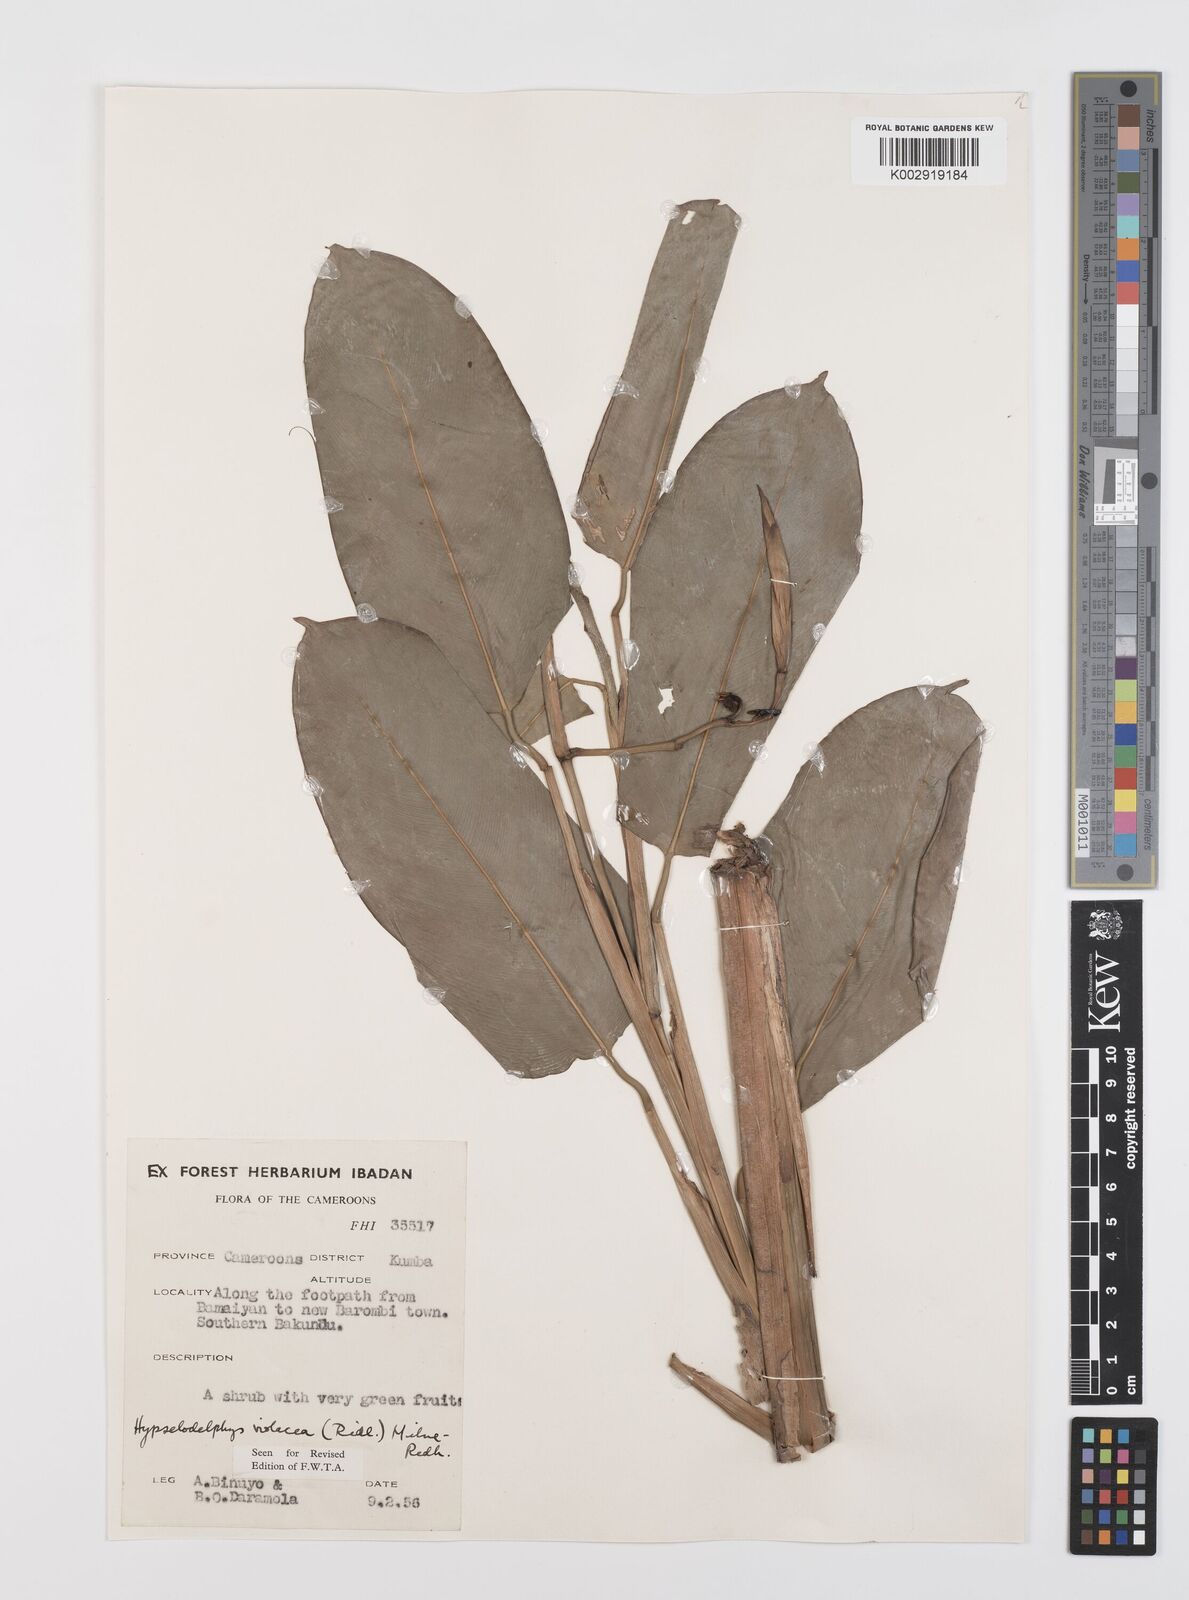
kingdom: Plantae
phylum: Tracheophyta
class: Liliopsida
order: Zingiberales
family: Marantaceae
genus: Hypselodelphys
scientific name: Hypselodelphys violacea
